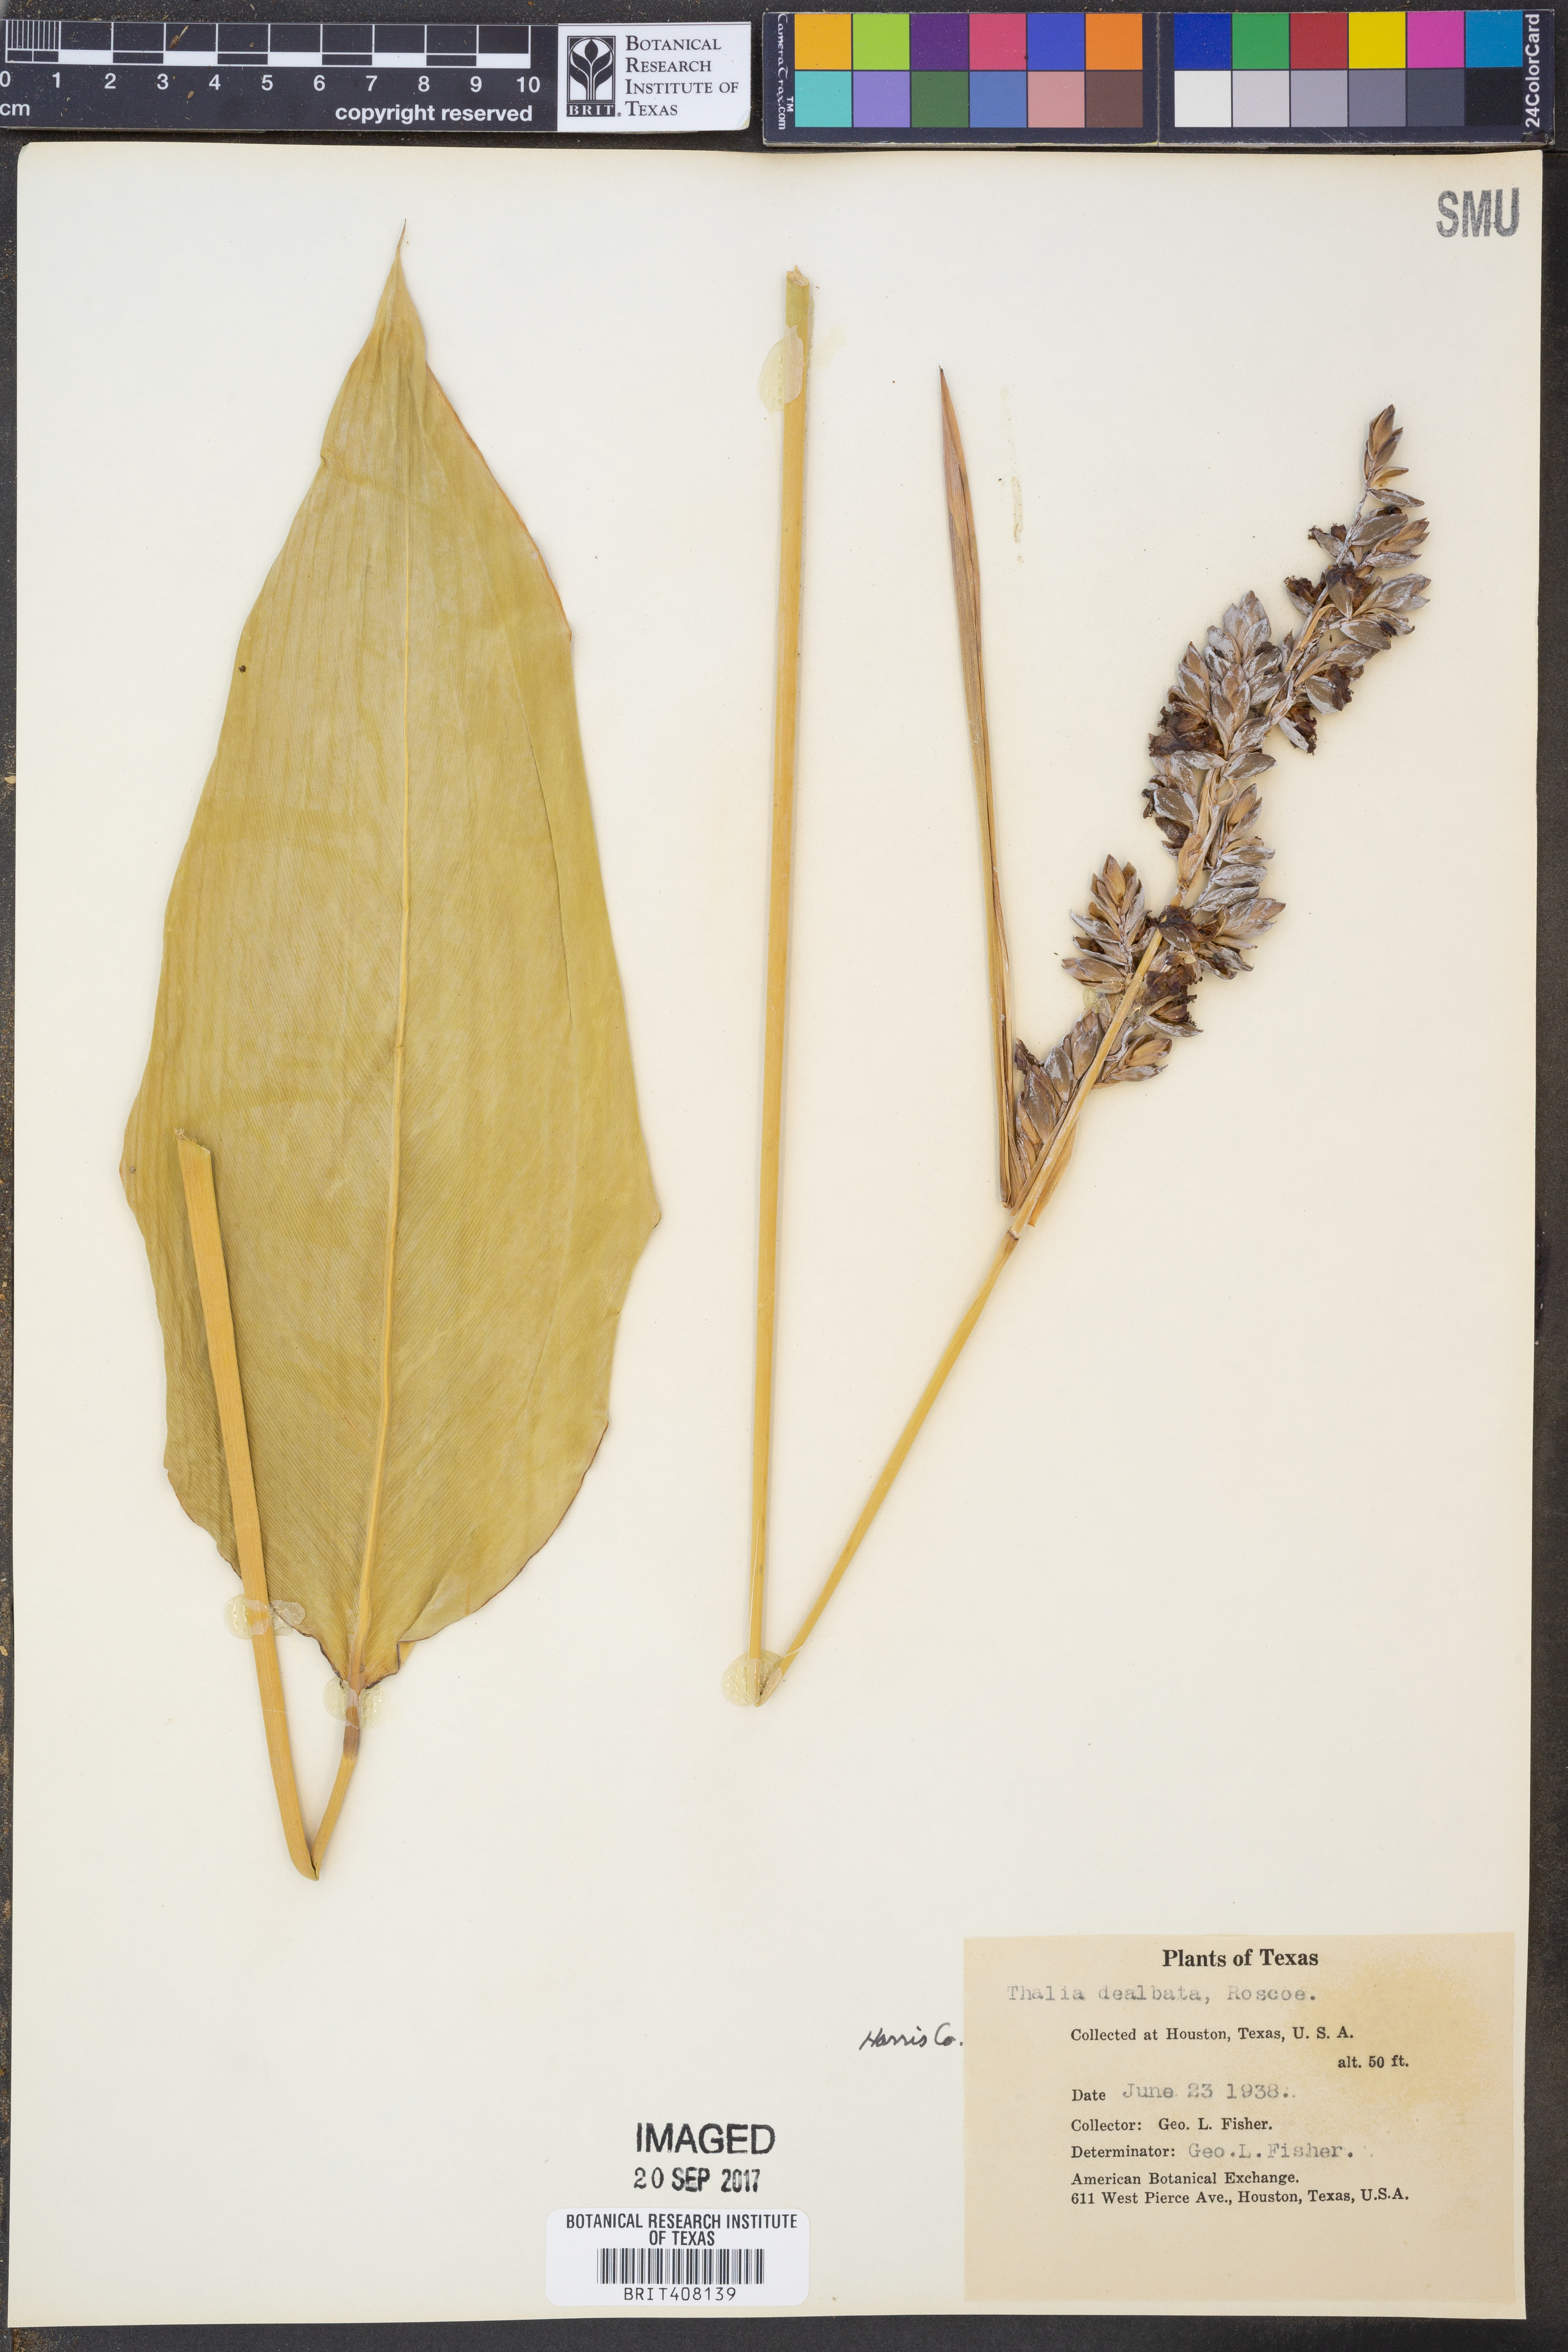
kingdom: Plantae
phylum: Tracheophyta
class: Liliopsida
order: Zingiberales
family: Marantaceae
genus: Thalia
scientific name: Thalia dealbata
